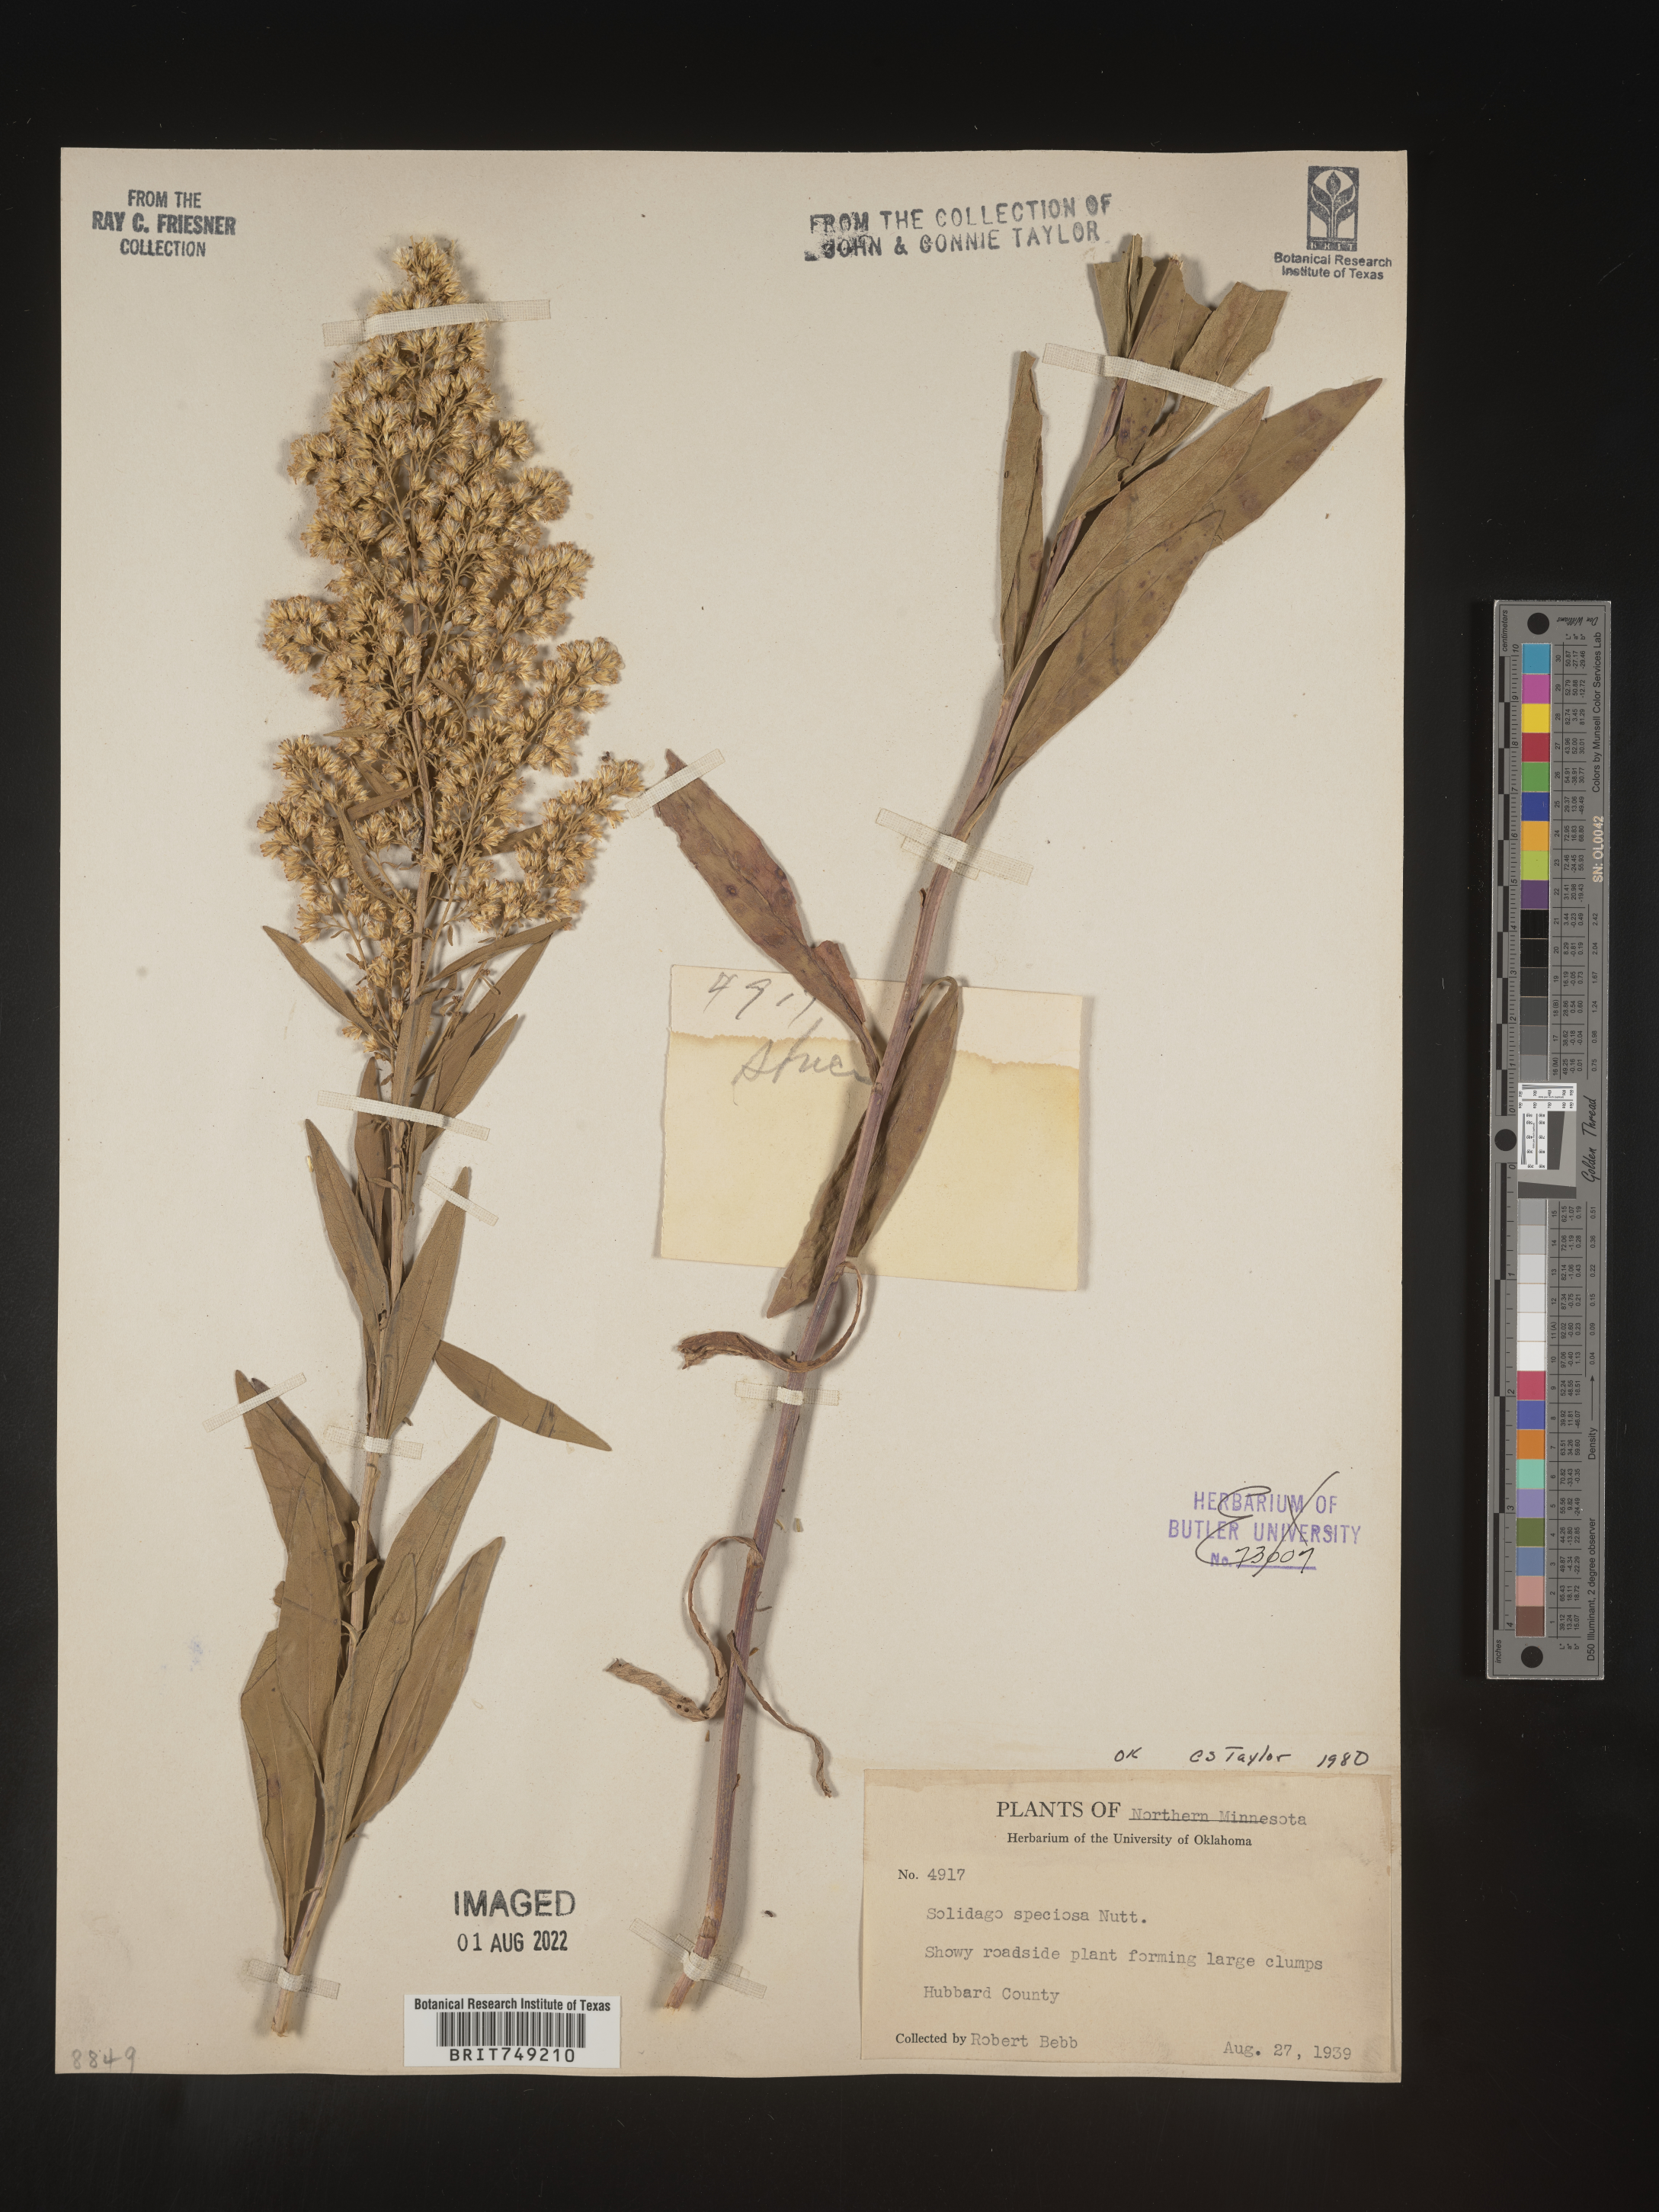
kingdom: Plantae
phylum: Tracheophyta
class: Magnoliopsida
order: Asterales
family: Asteraceae
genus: Solidago
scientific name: Solidago speciosa
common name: Showy goldenrod
